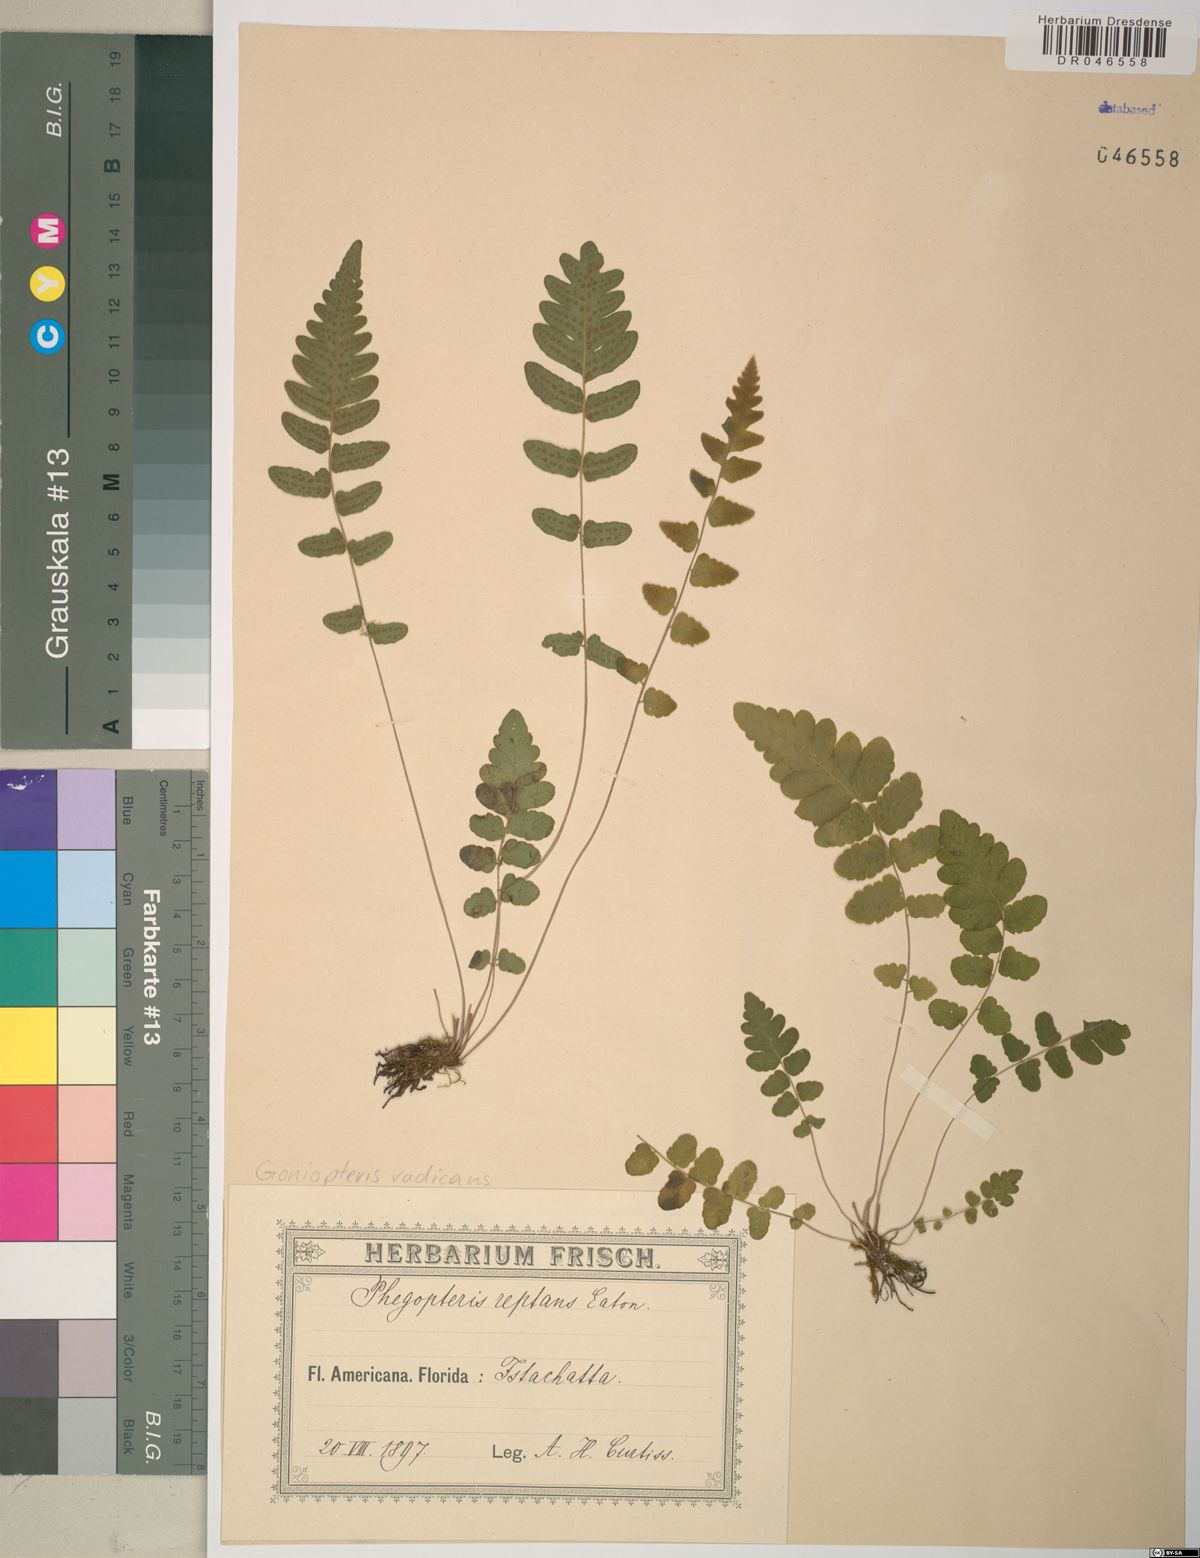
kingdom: Plantae
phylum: Tracheophyta
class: Polypodiopsida
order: Polypodiales
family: Aspleniaceae
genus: Asplenium
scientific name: Asplenium radicans
